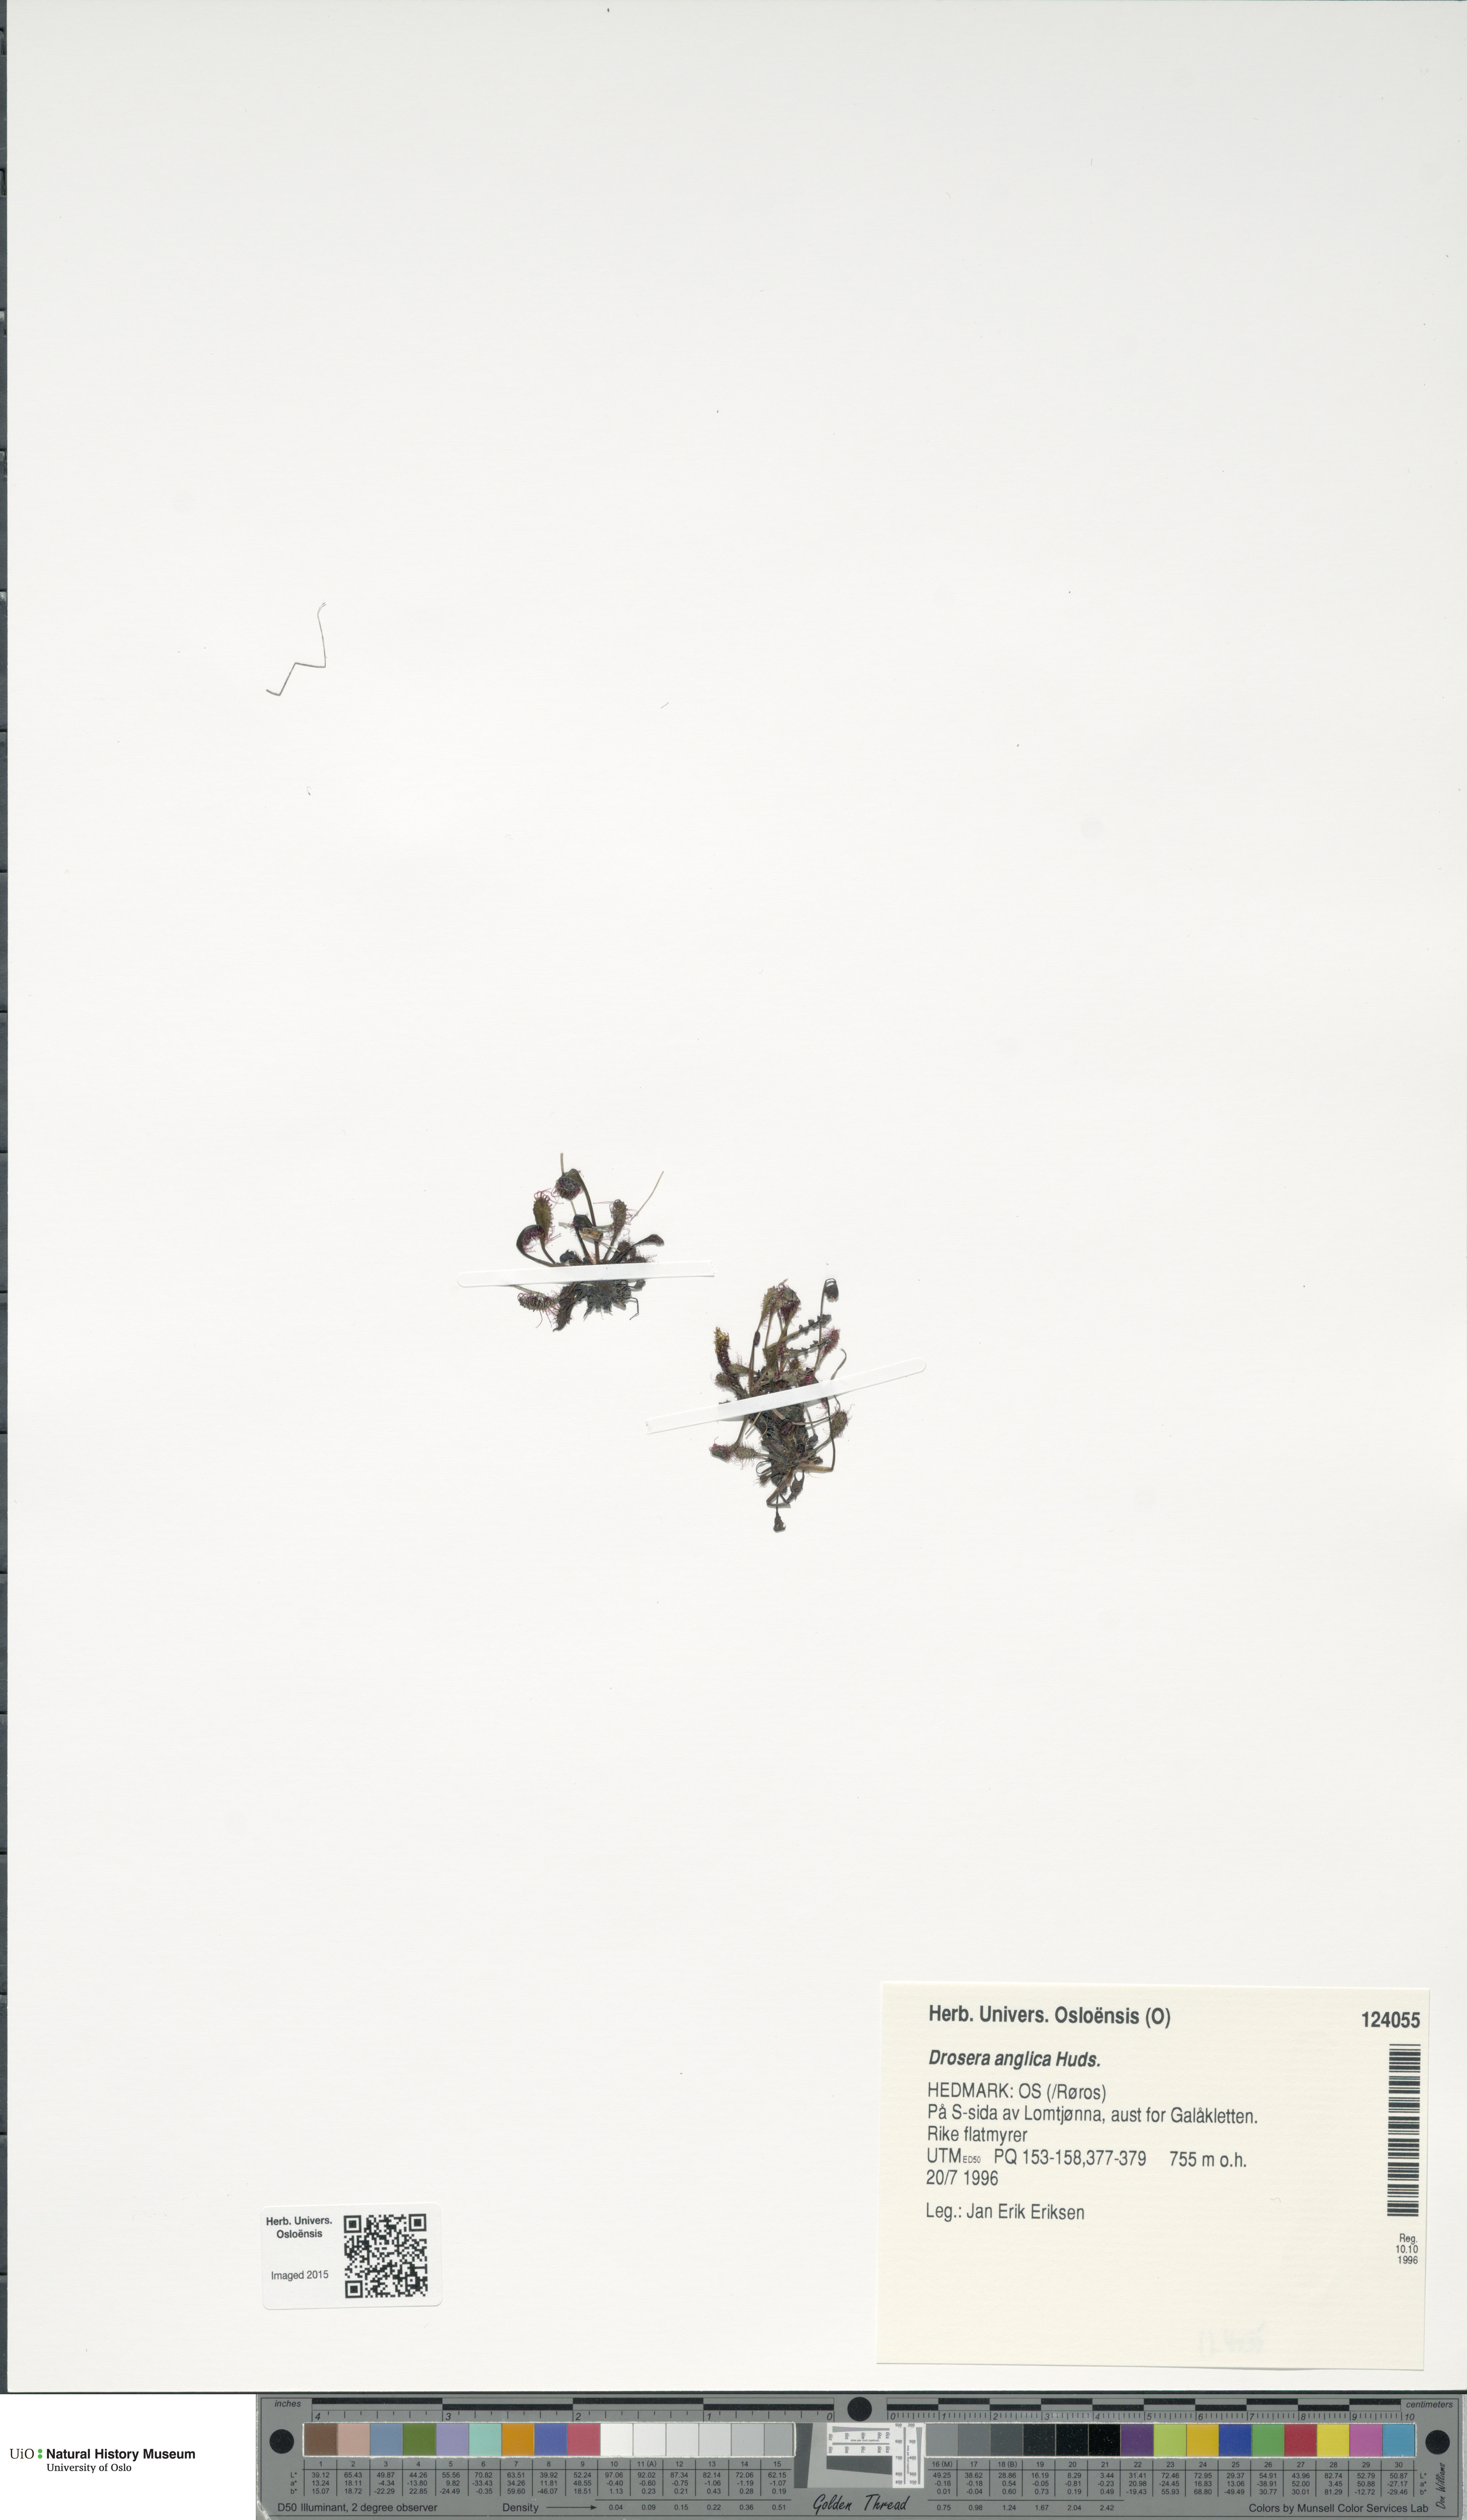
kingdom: Plantae
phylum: Tracheophyta
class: Magnoliopsida
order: Caryophyllales
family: Droseraceae
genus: Drosera
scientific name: Drosera anglica
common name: Great sundew
